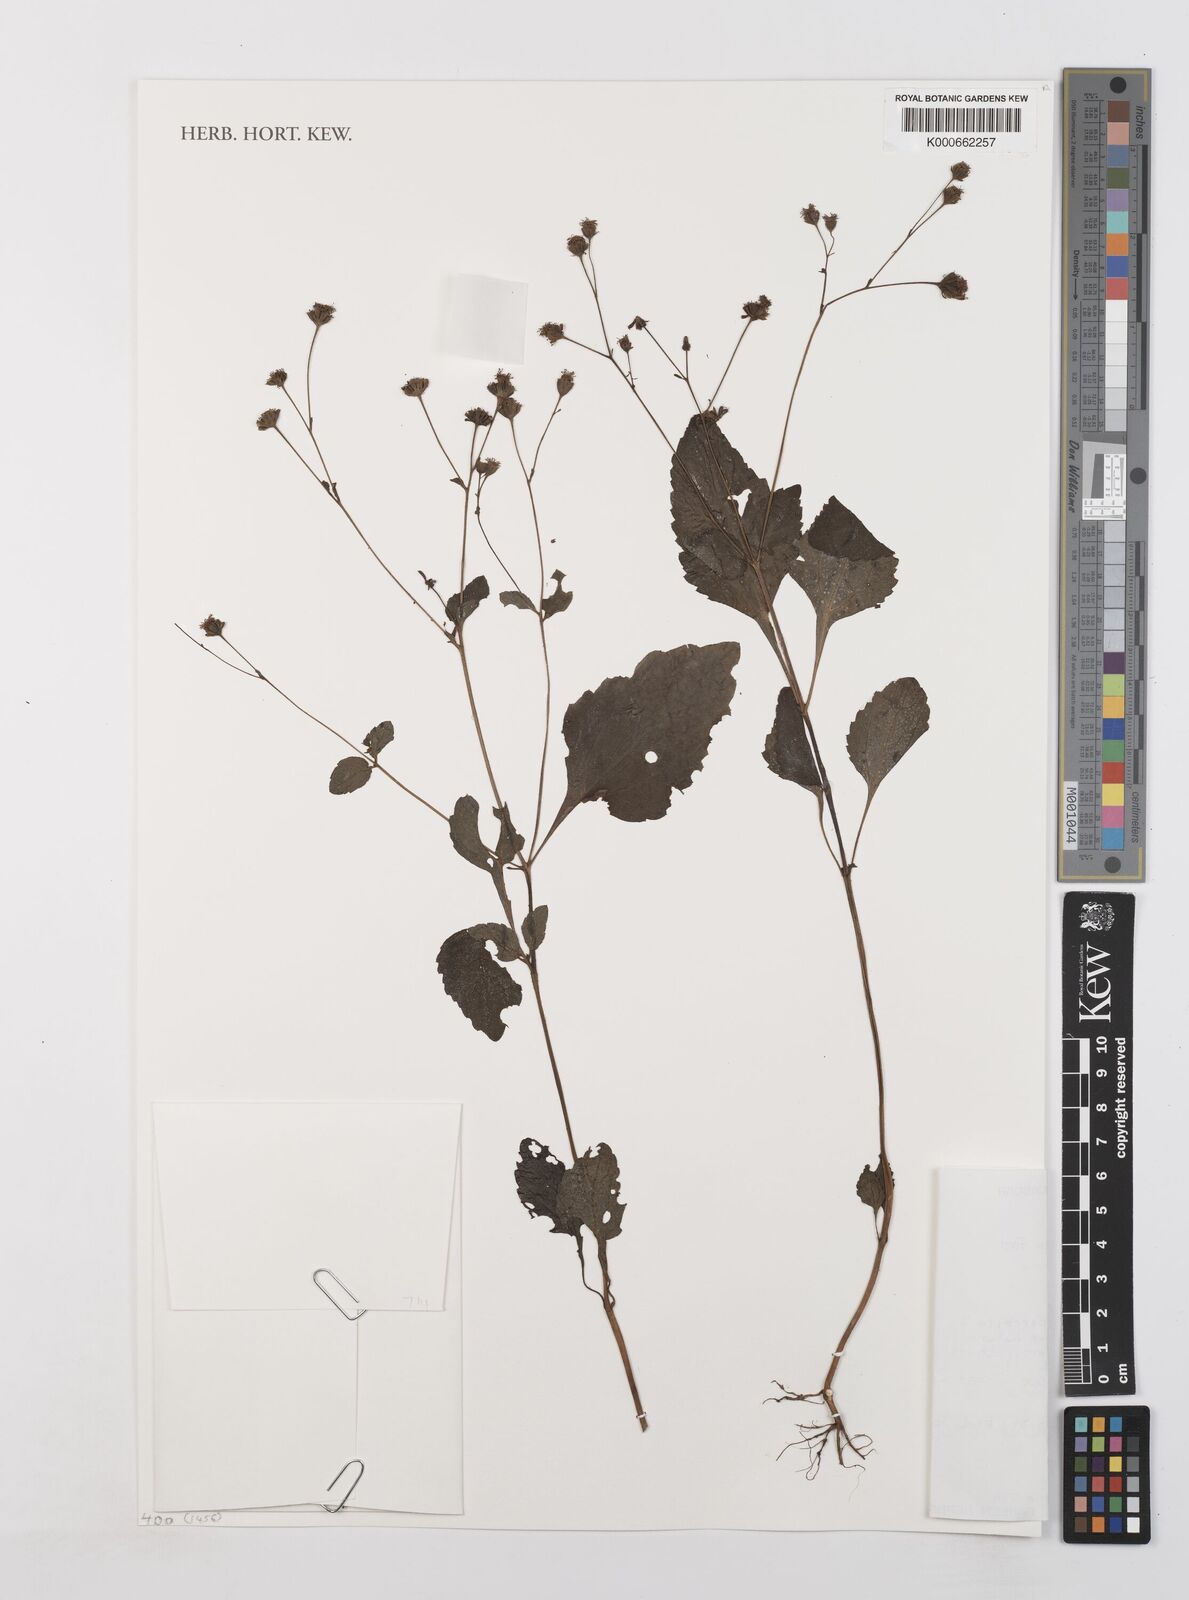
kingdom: Plantae
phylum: Tracheophyta
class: Magnoliopsida
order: Asterales
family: Asteraceae
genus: Adenostemma
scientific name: Adenostemma viscosum
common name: Dungweed
